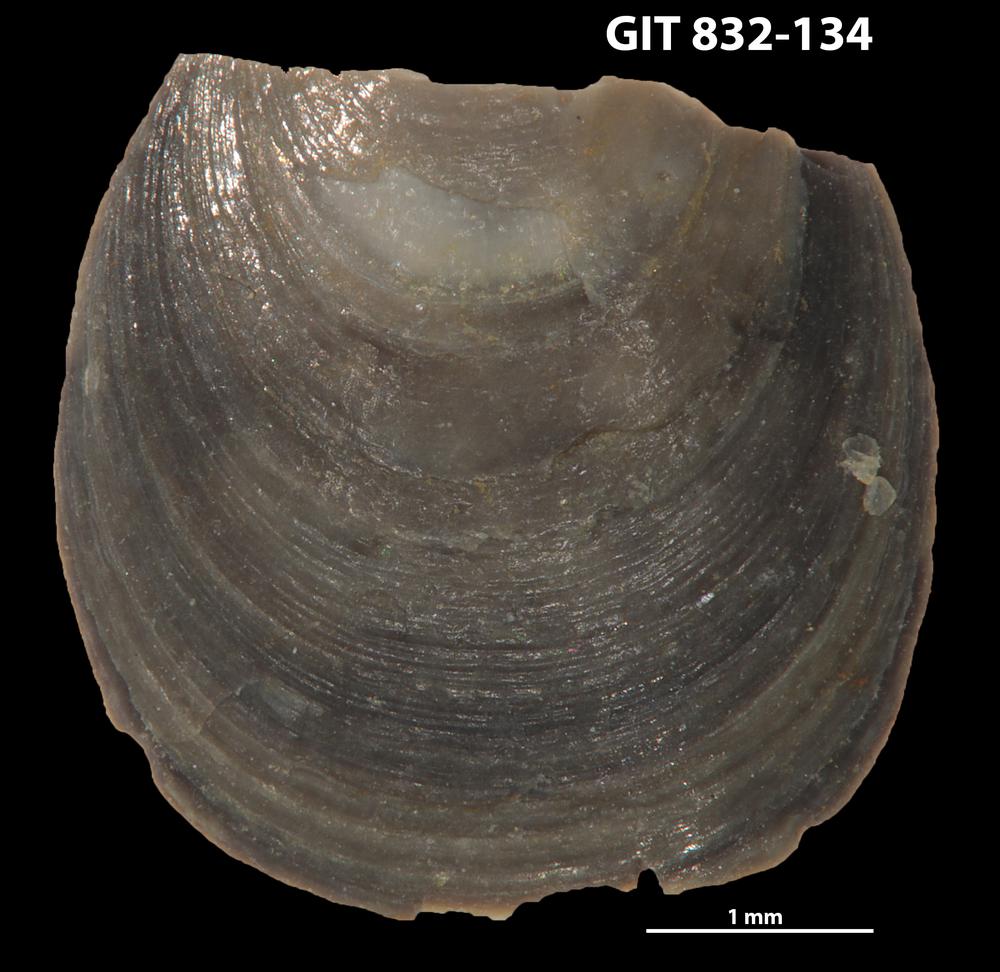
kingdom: Animalia
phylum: Brachiopoda
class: Lingulata
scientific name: Lingulata
